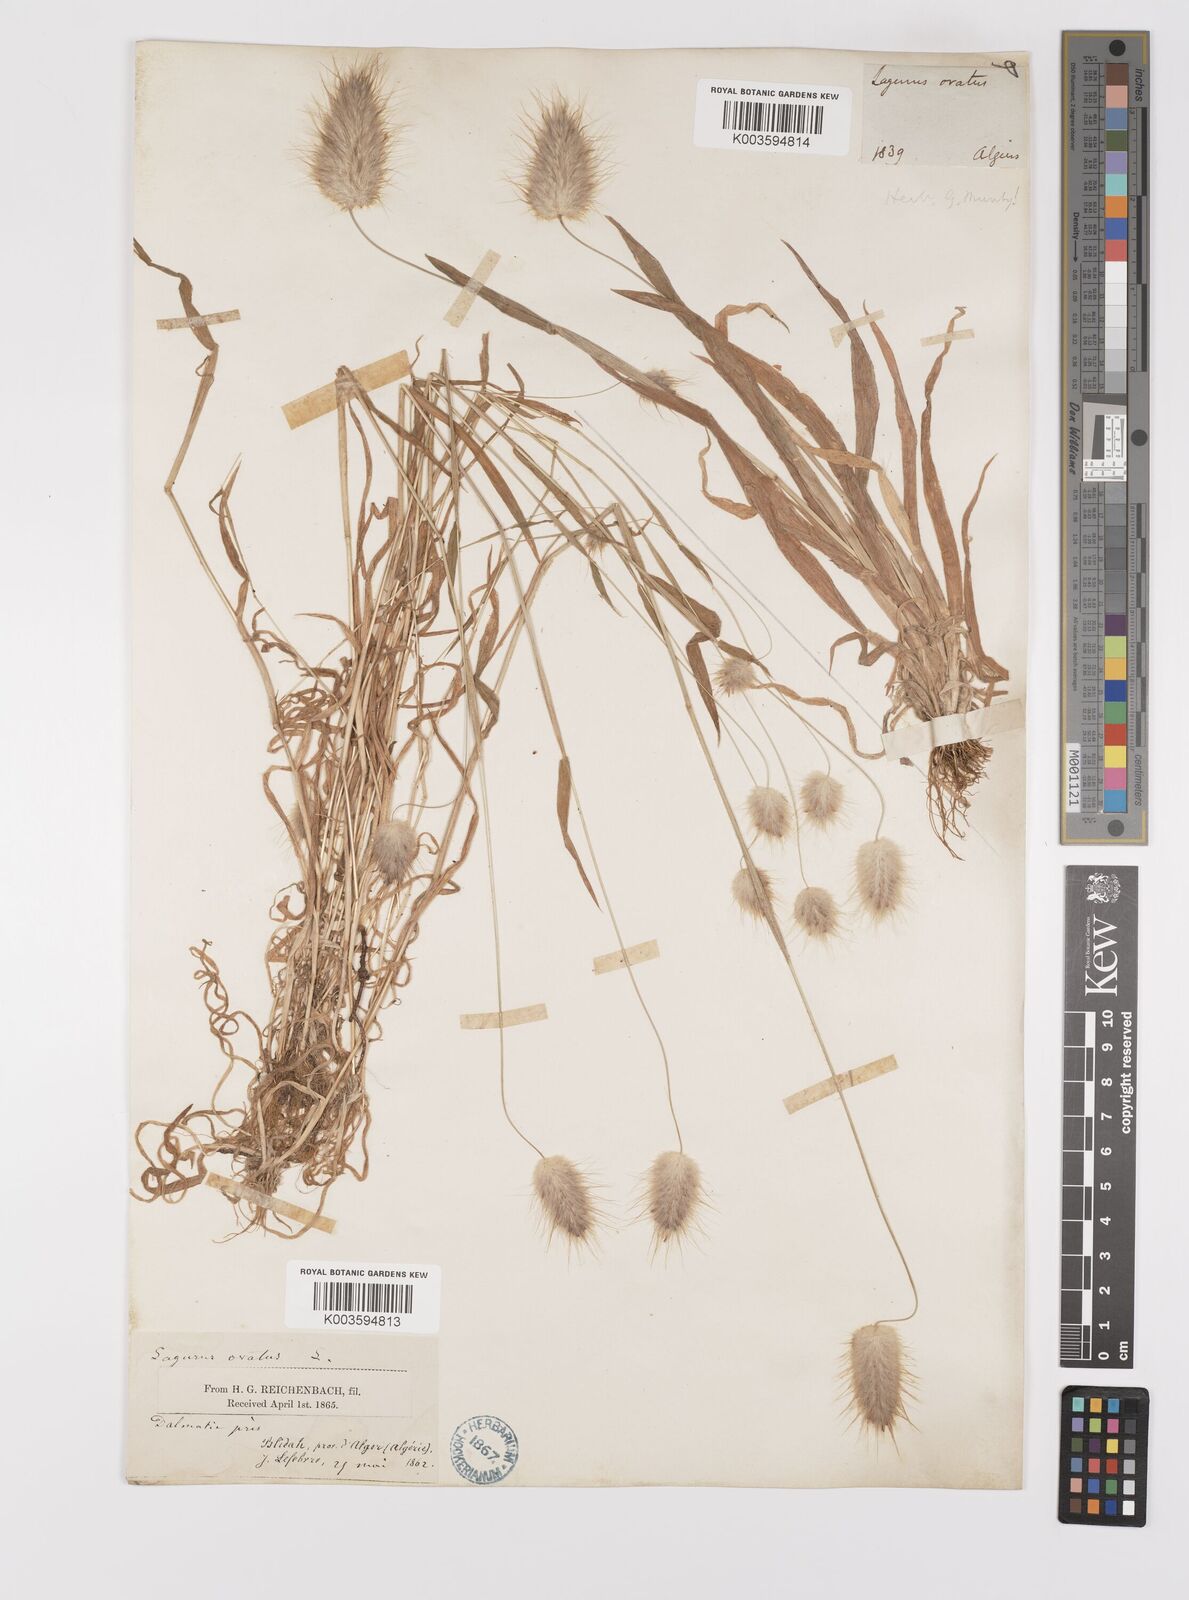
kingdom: Plantae
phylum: Tracheophyta
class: Liliopsida
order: Poales
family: Poaceae
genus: Lagurus
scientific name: Lagurus ovatus
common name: Hare's-tail
